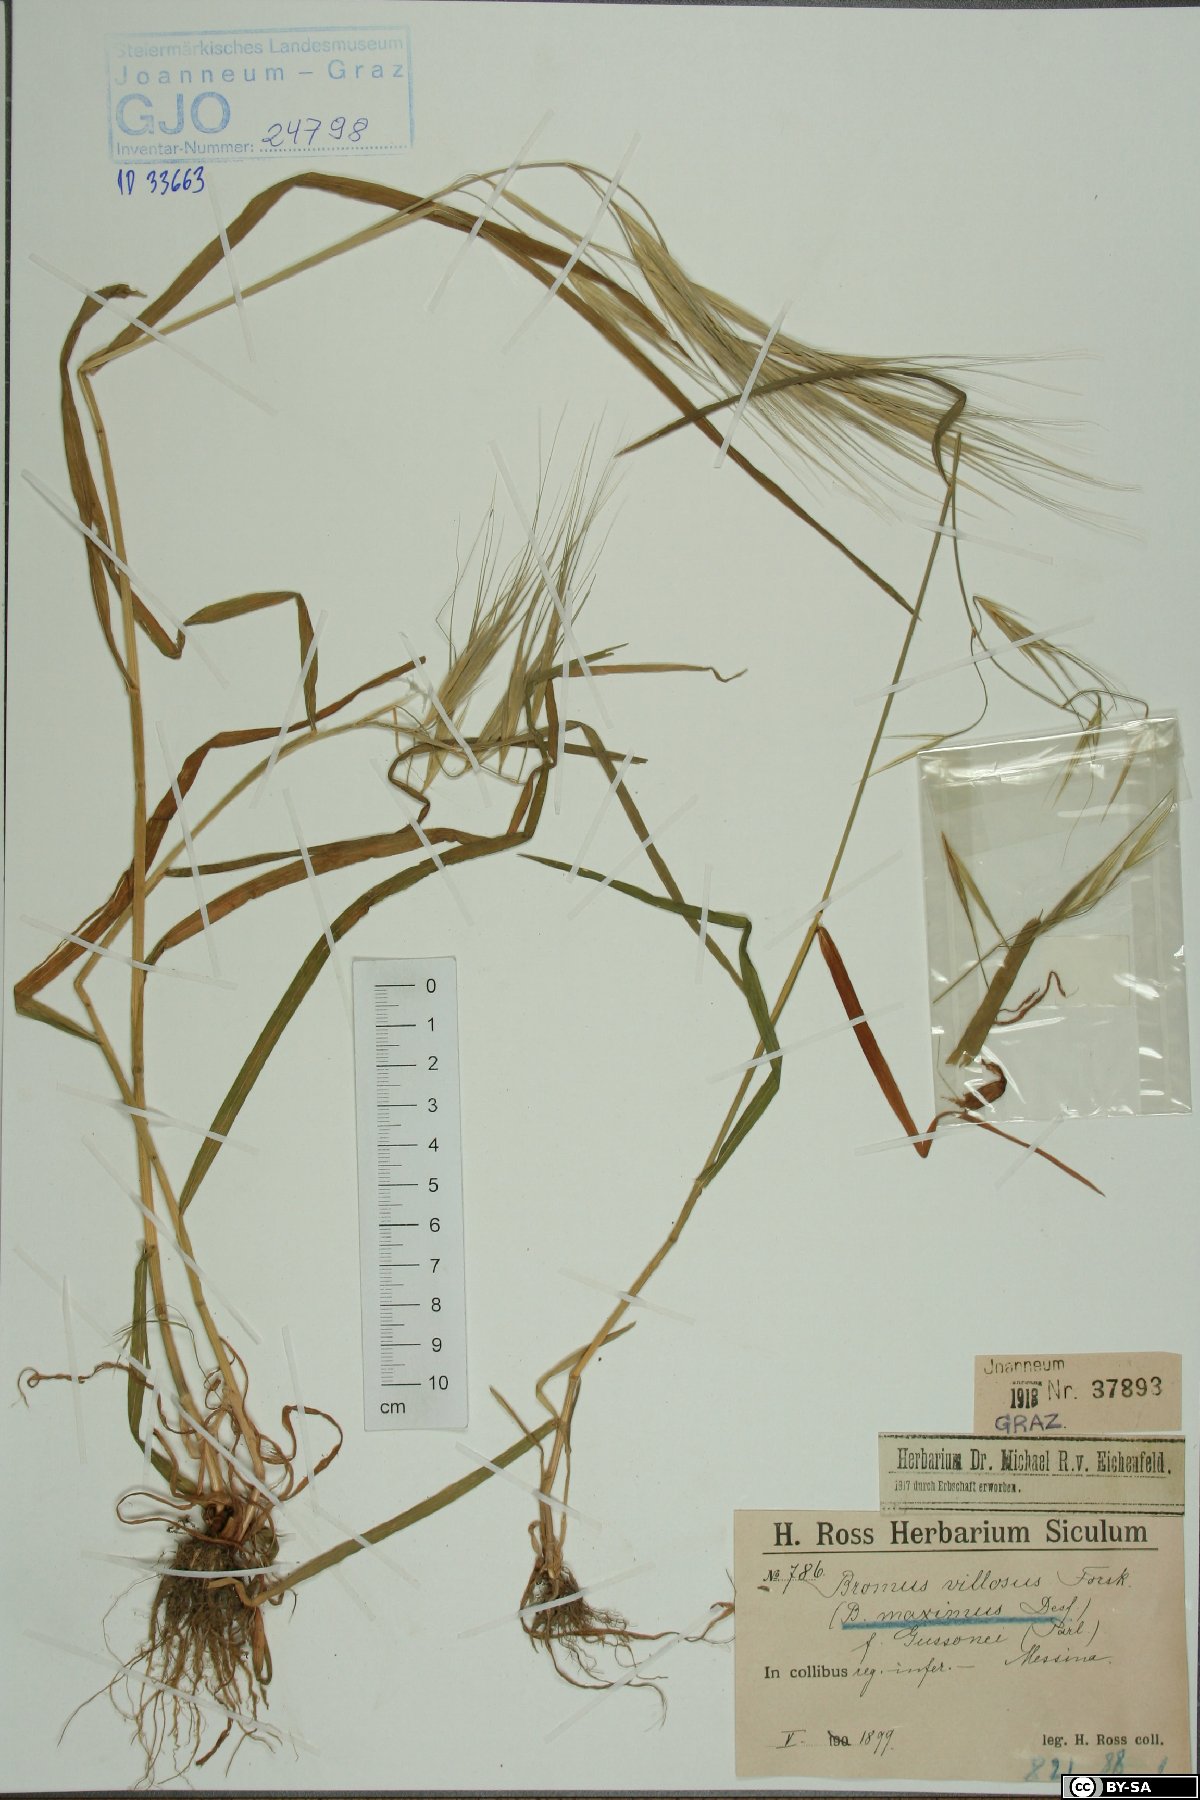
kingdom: Plantae
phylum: Tracheophyta
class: Liliopsida
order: Poales
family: Poaceae
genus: Bromus
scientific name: Bromus diandrus
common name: Ripgut brome
